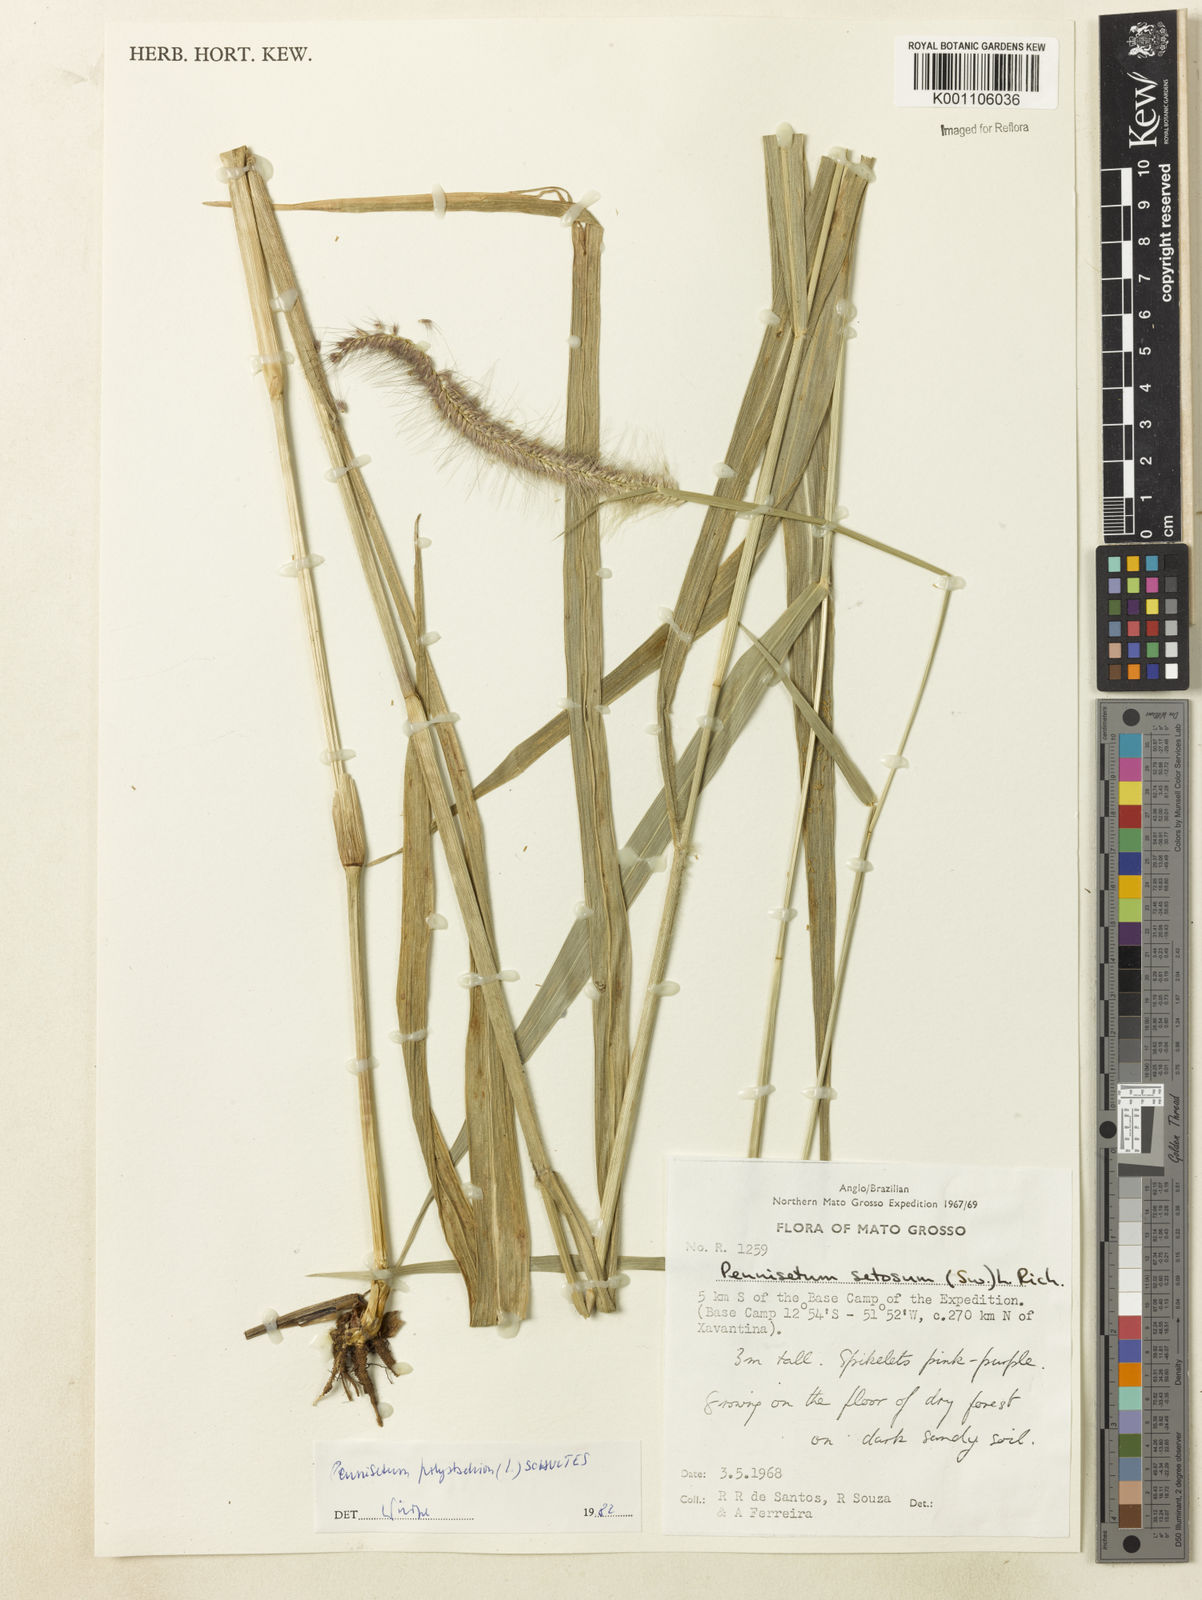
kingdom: Plantae
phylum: Tracheophyta
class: Liliopsida
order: Poales
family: Poaceae
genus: Setaria
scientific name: Setaria parviflora
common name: Knotroot bristle-grass
